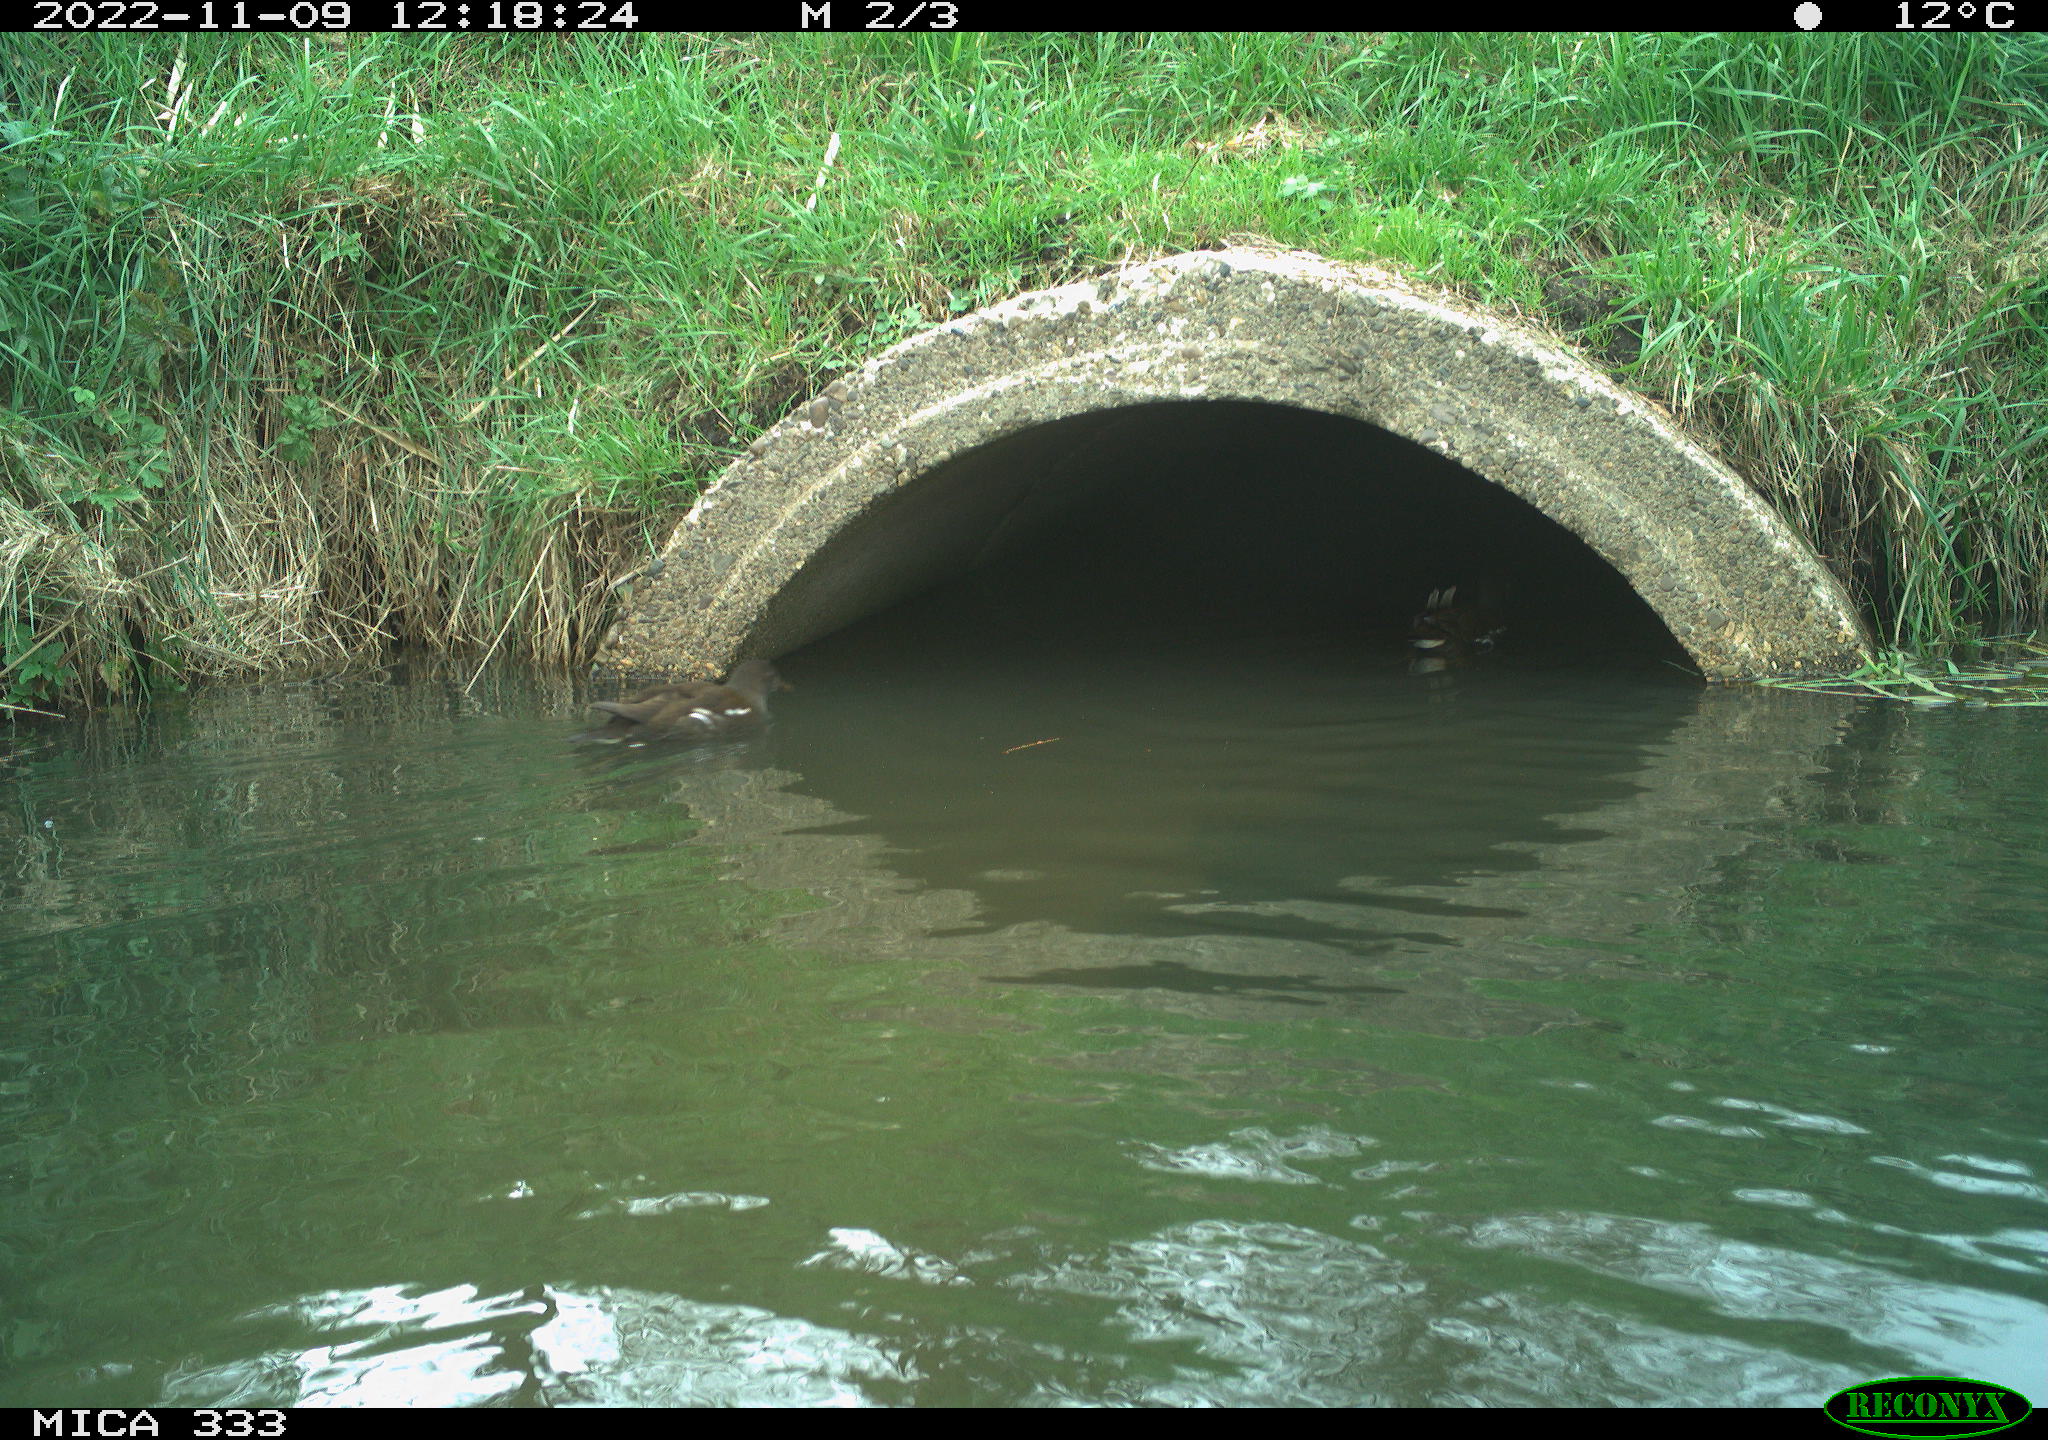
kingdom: Animalia
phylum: Chordata
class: Aves
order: Gruiformes
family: Rallidae
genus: Gallinula
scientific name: Gallinula chloropus
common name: Common moorhen
